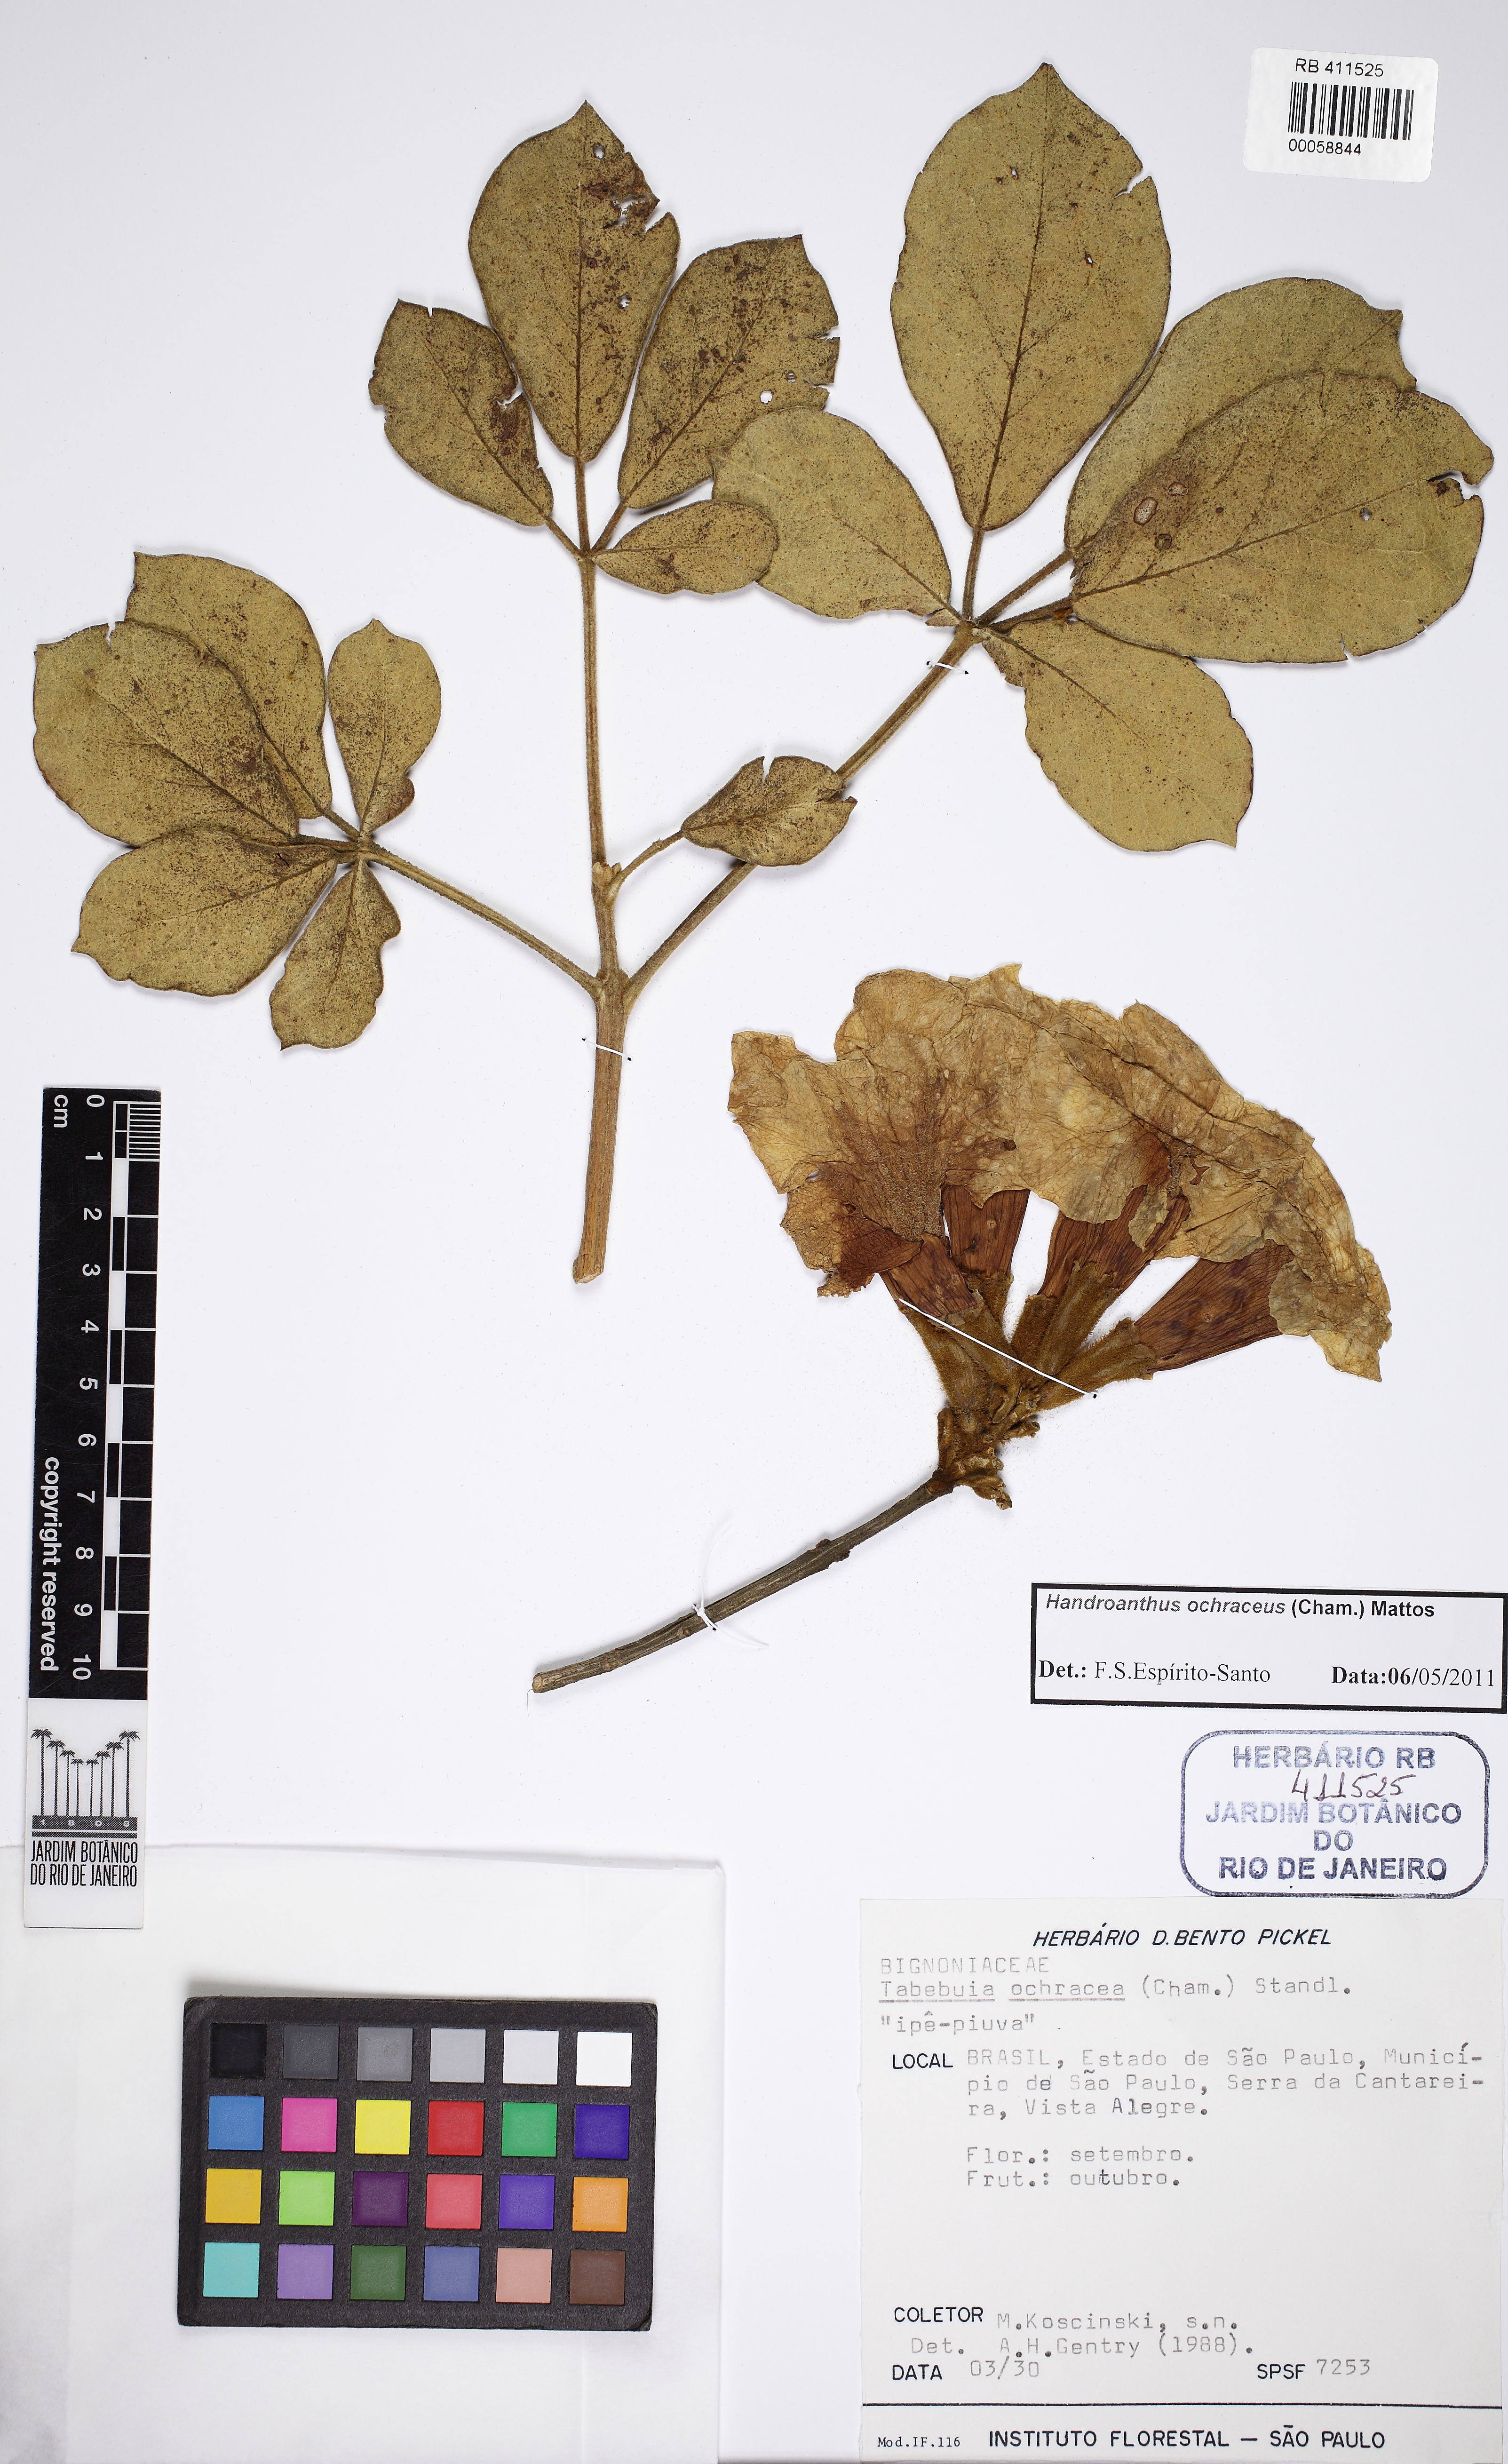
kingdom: Plantae
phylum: Tracheophyta
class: Magnoliopsida
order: Lamiales
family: Bignoniaceae
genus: Handroanthus
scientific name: Handroanthus ochraceus
